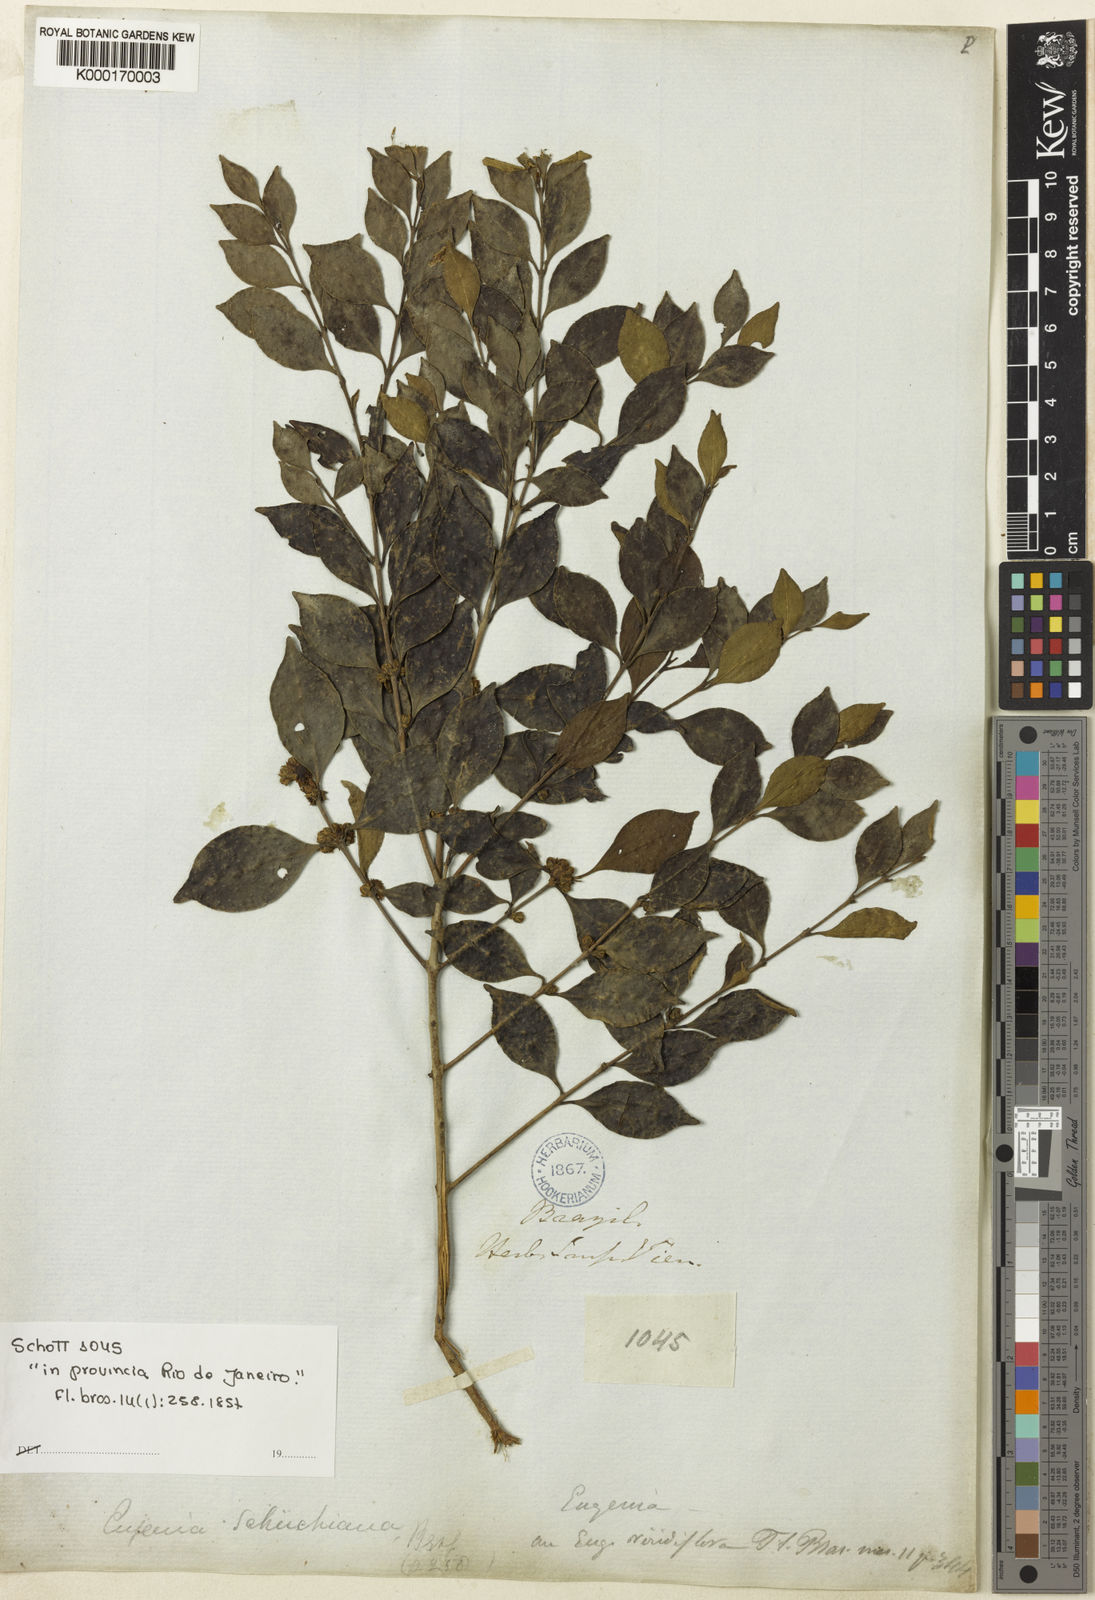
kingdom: Plantae
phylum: Tracheophyta
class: Magnoliopsida
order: Myrtales
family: Myrtaceae
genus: Eugenia
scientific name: Eugenia verticillata
